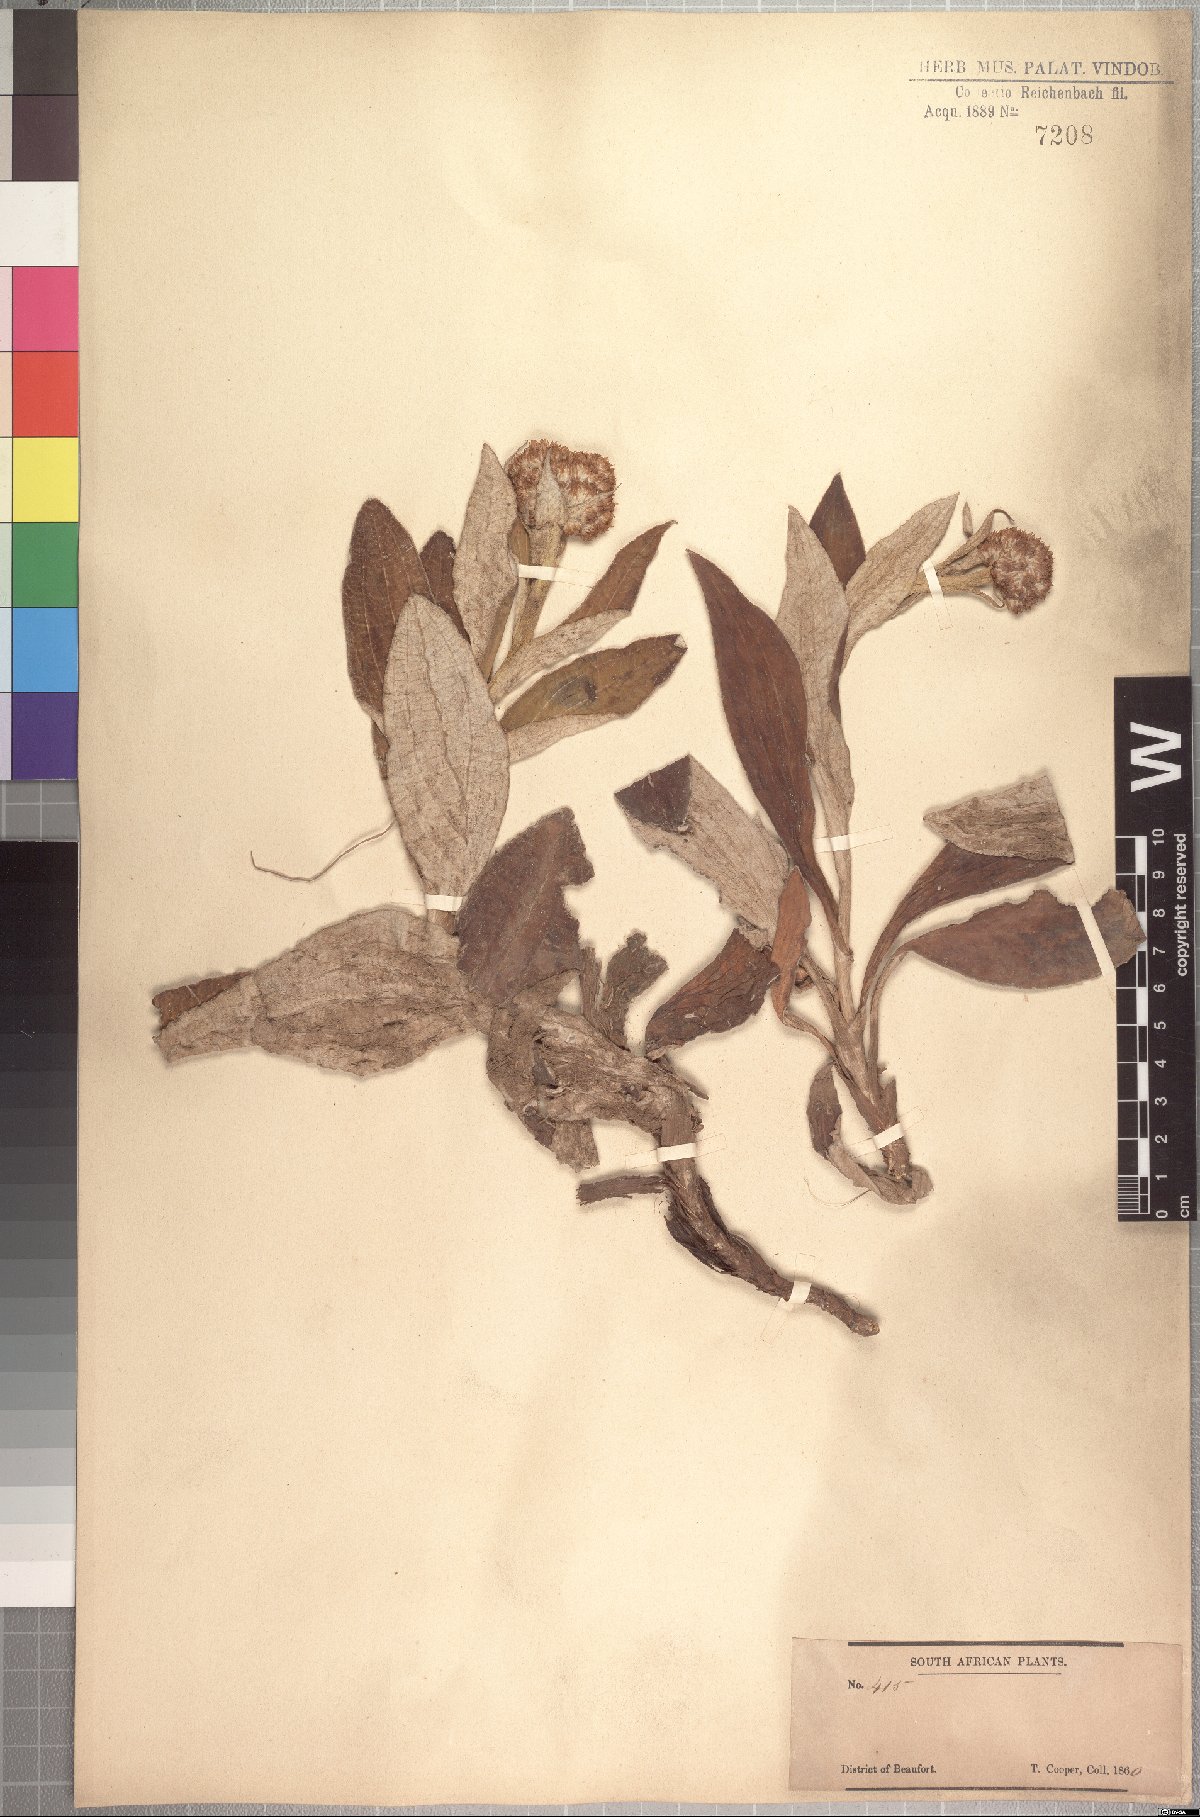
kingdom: Plantae
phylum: Tracheophyta
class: Magnoliopsida
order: Asterales
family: Asteraceae
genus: Helichrysum
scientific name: Helichrysum pedunculatum
